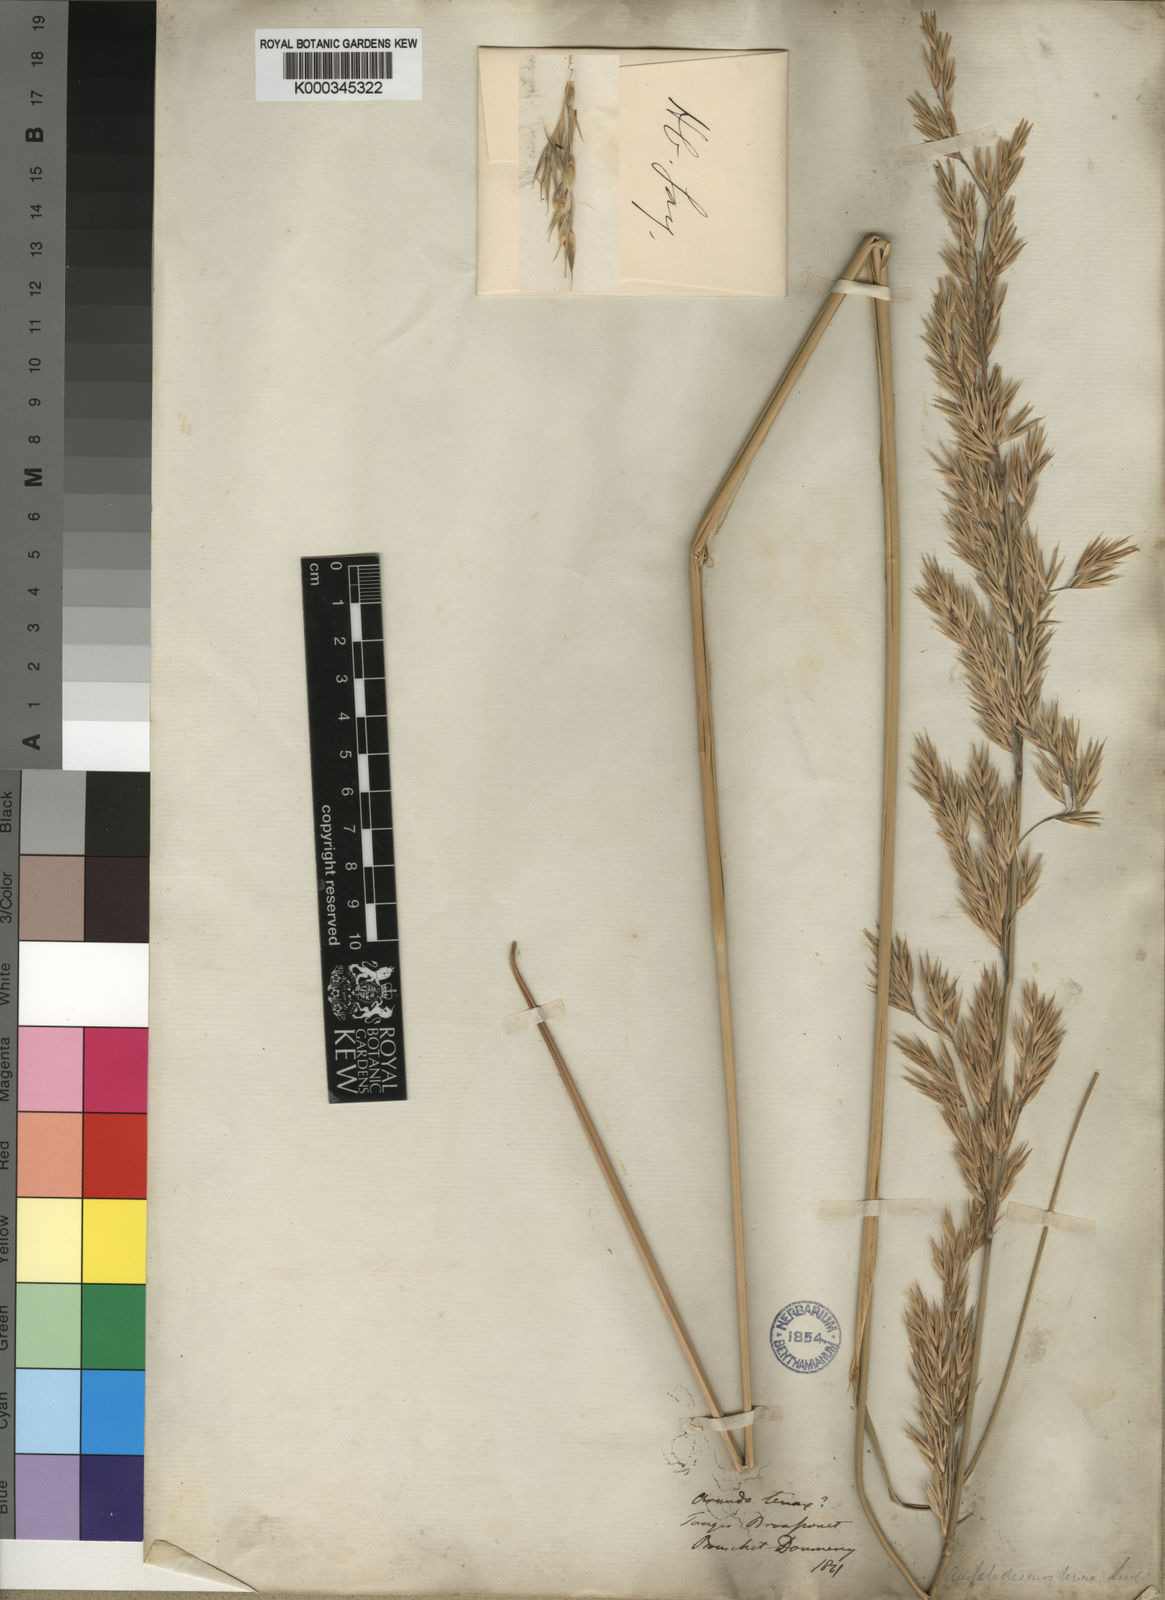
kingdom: Plantae
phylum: Tracheophyta
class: Liliopsida
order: Poales
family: Poaceae
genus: Ampelodesmos
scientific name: Ampelodesmos mauritanicus
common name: Mauritanian grass
